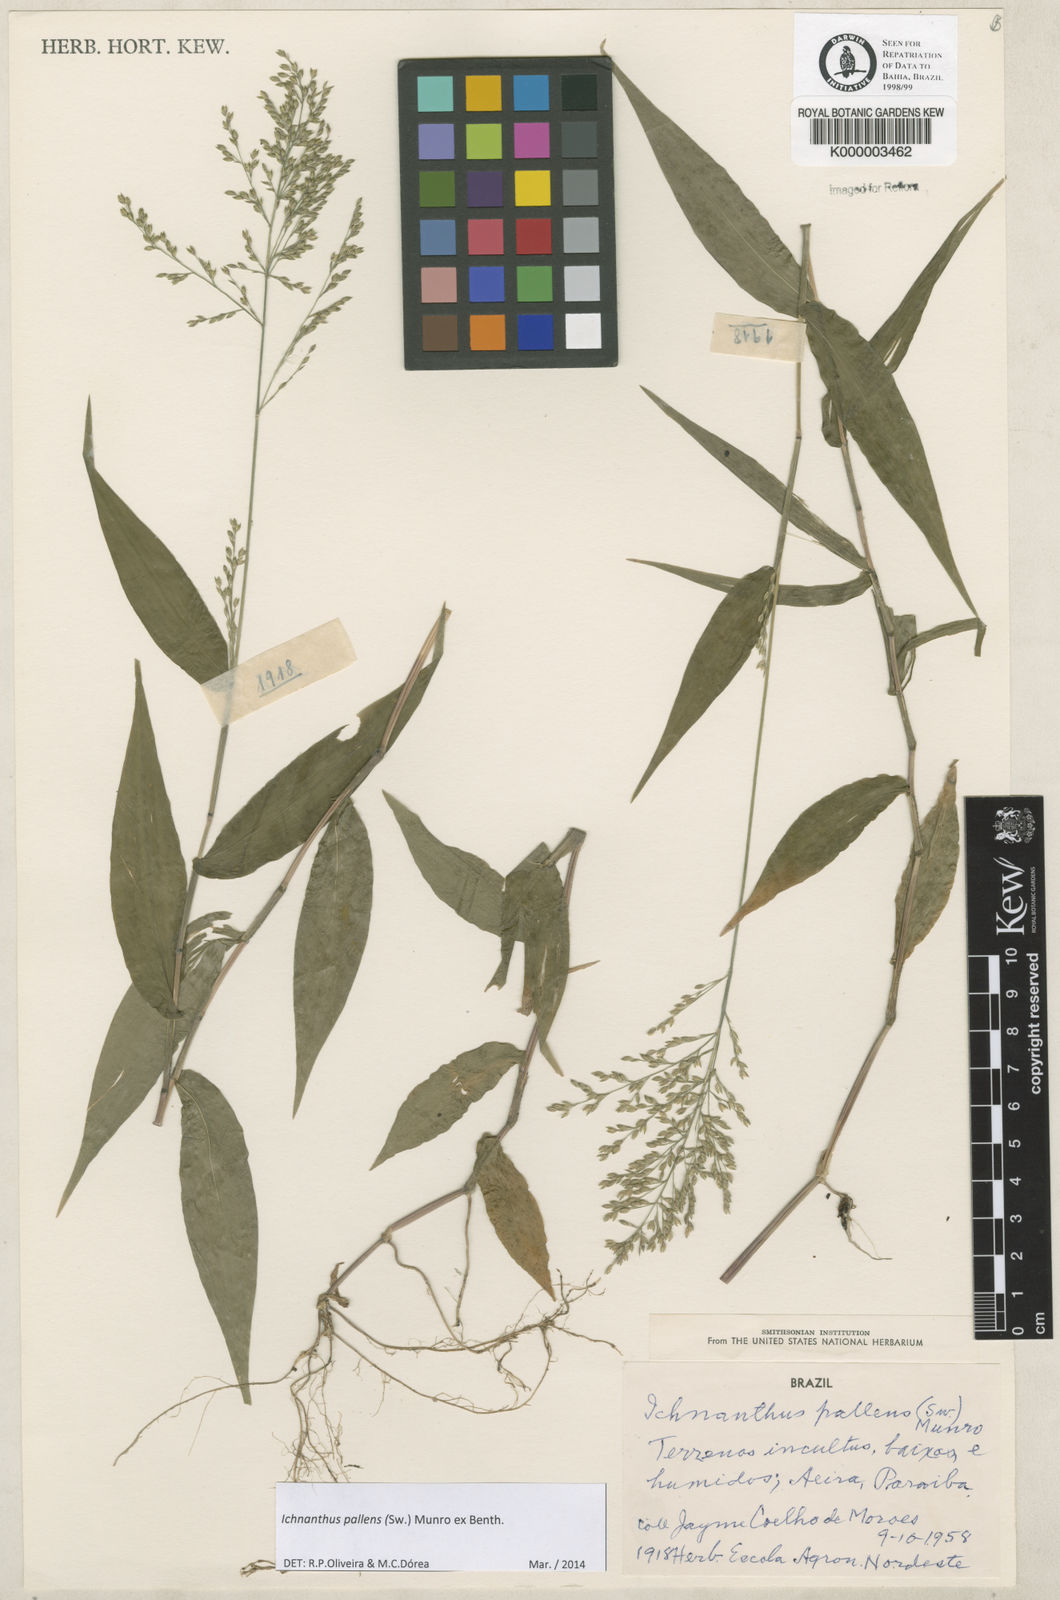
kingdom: Plantae
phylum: Tracheophyta
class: Liliopsida
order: Poales
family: Poaceae
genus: Ichnanthus
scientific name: Ichnanthus
